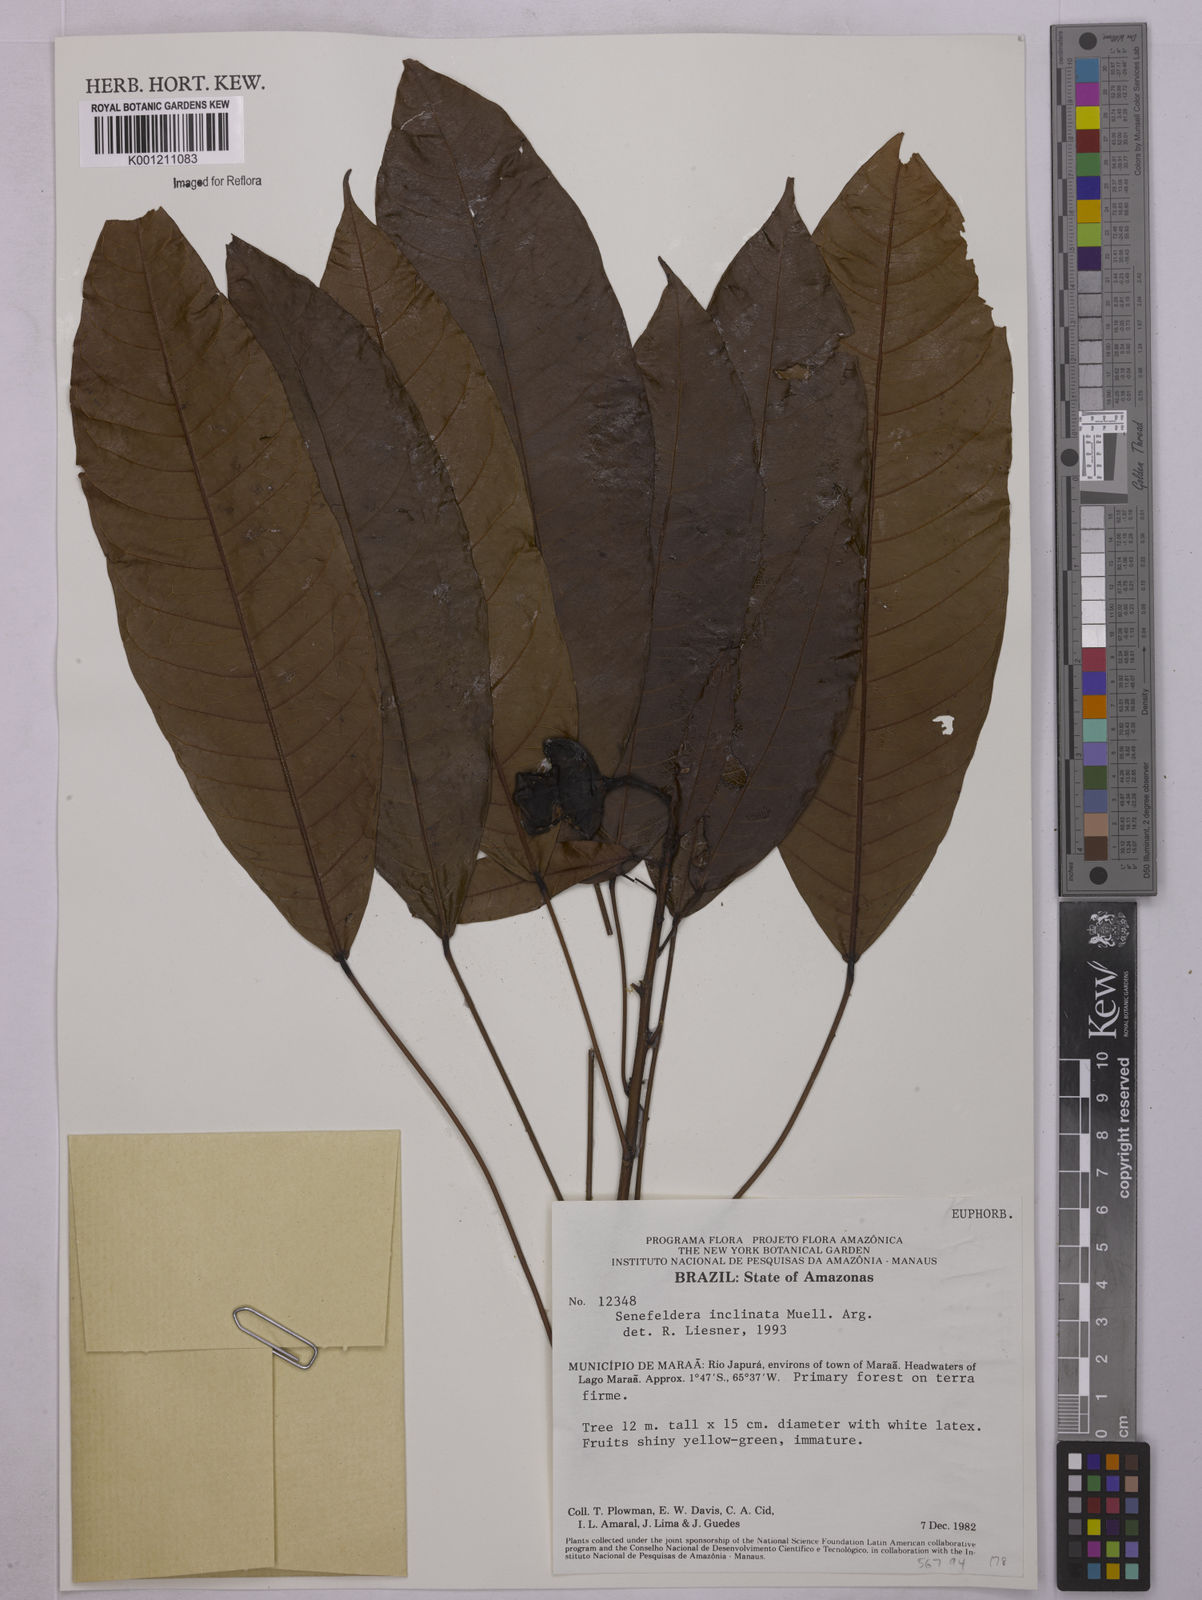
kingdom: Plantae
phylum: Tracheophyta
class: Magnoliopsida
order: Malpighiales
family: Euphorbiaceae
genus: Pseudosenefeldera
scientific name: Pseudosenefeldera
